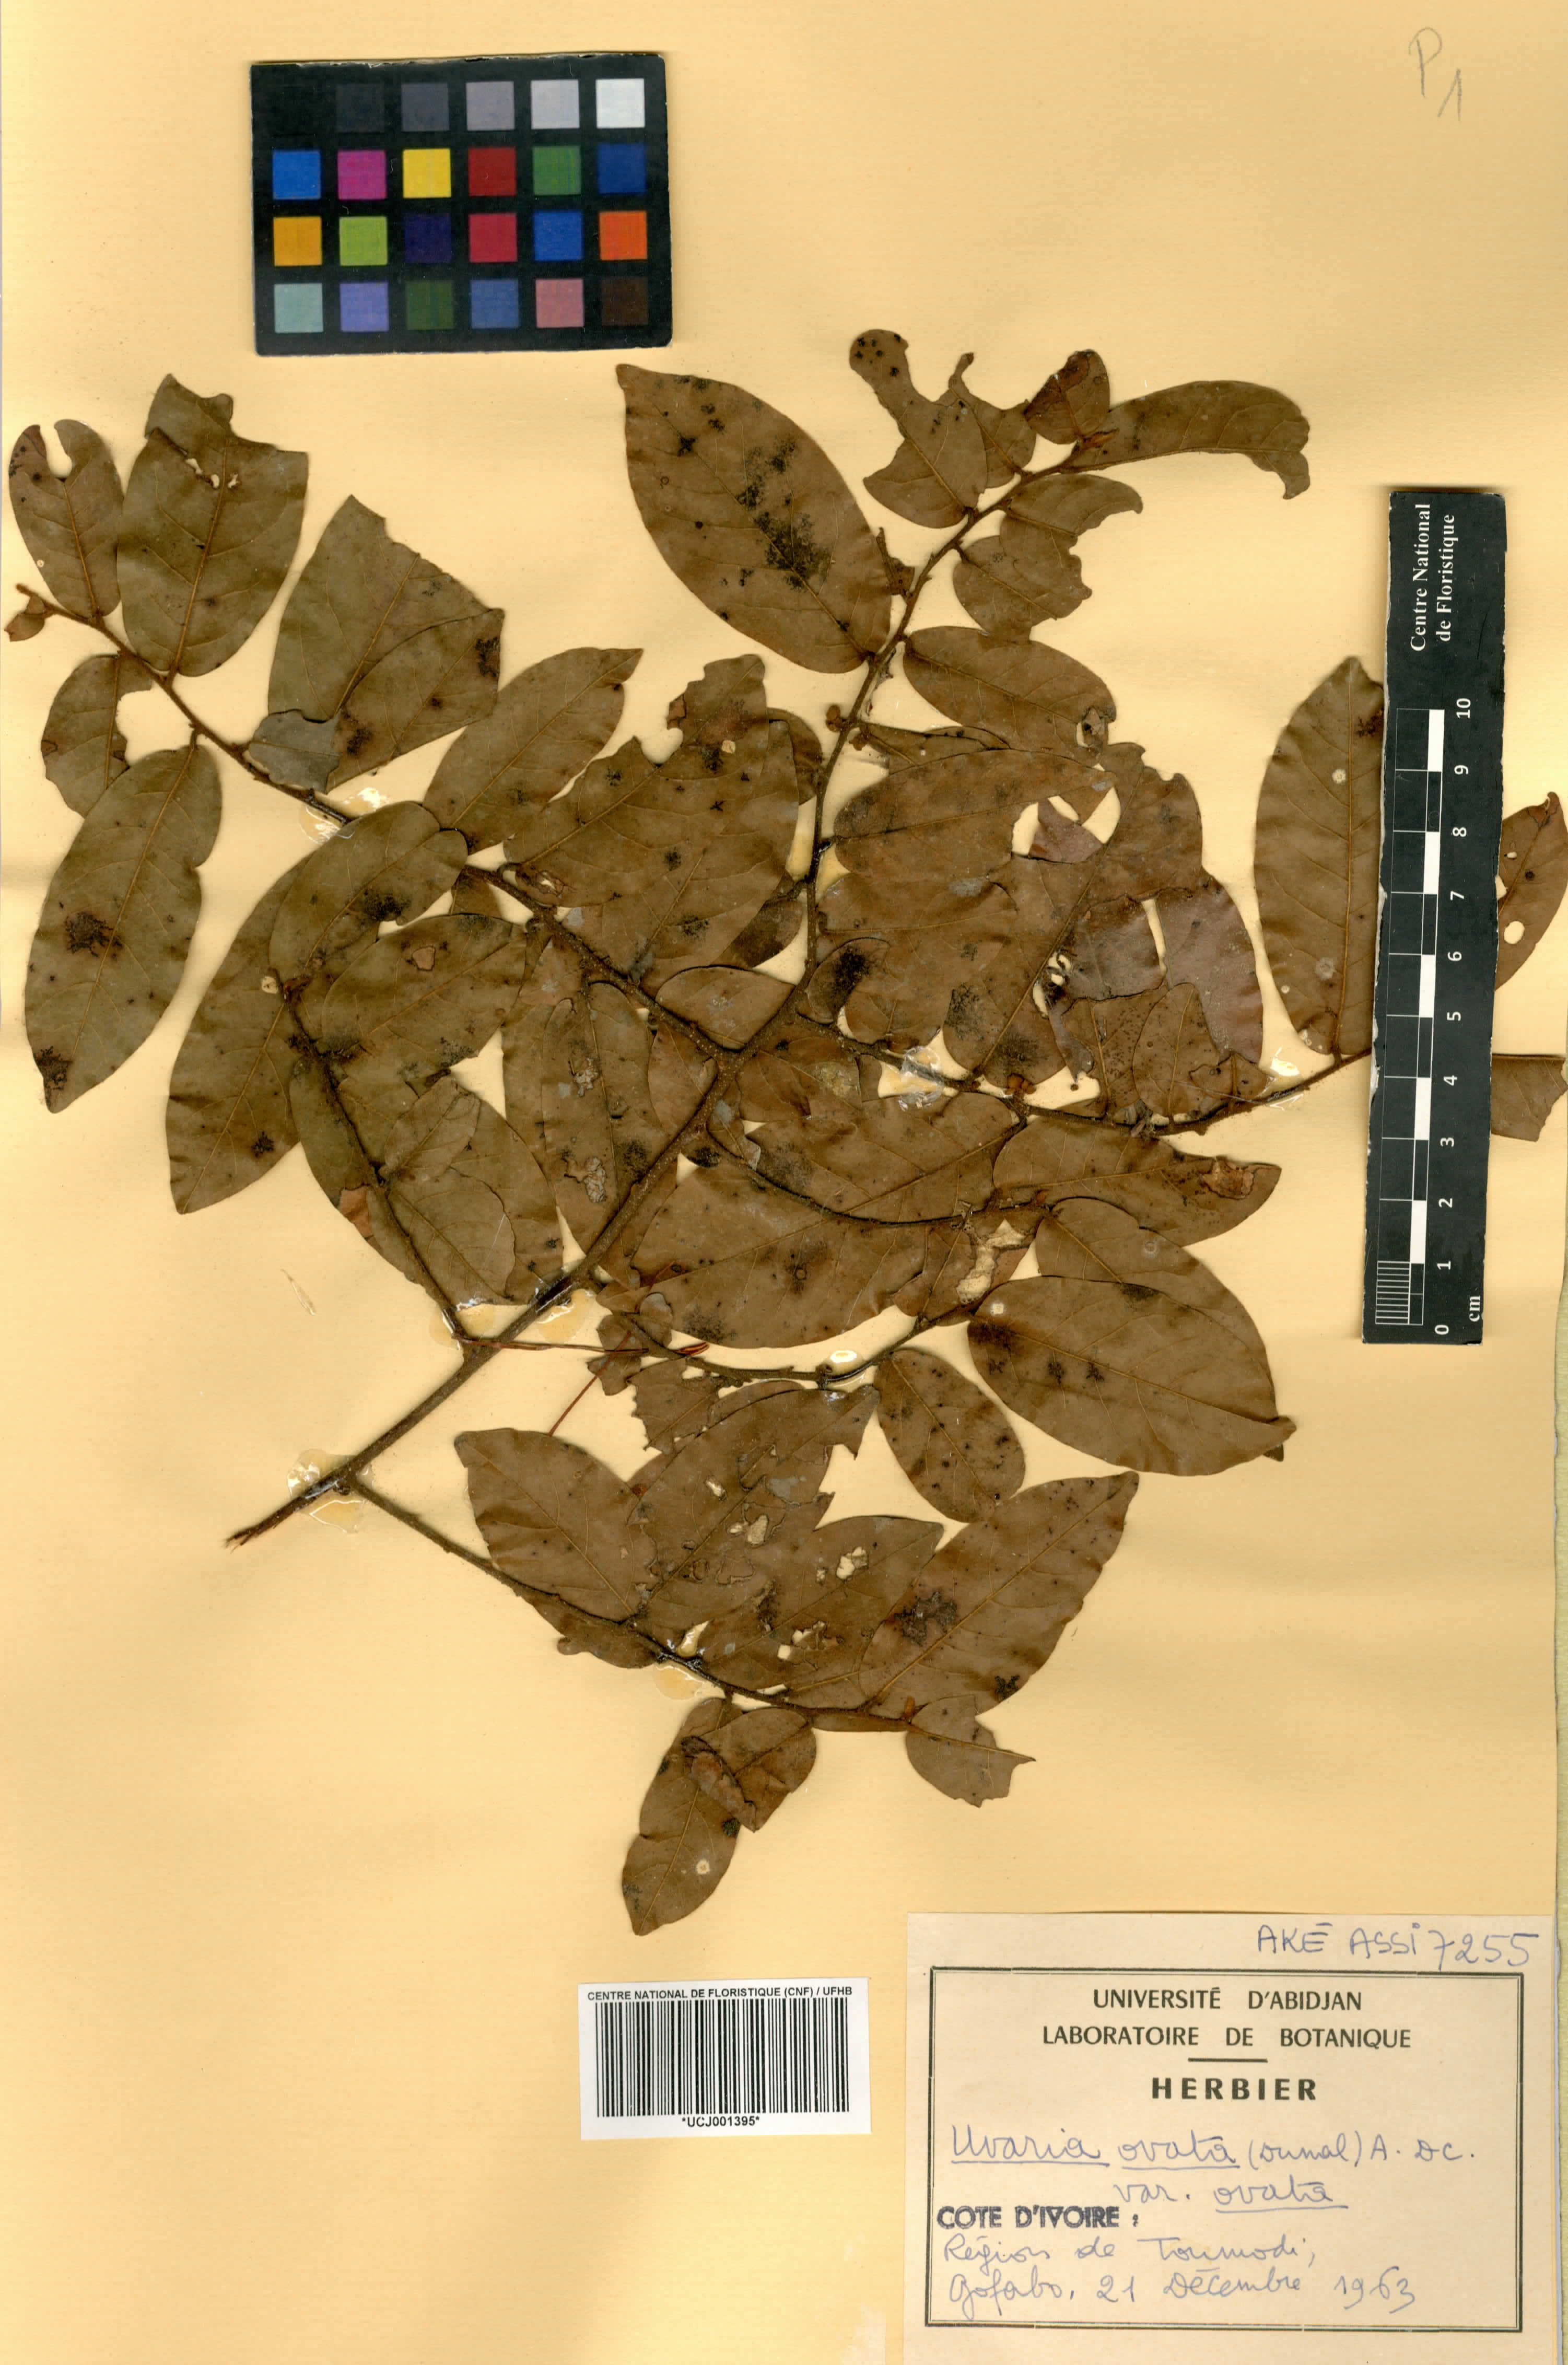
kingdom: Plantae
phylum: Tracheophyta
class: Magnoliopsida
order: Magnoliales
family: Annonaceae
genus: Uvaria
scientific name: Uvaria ovata
